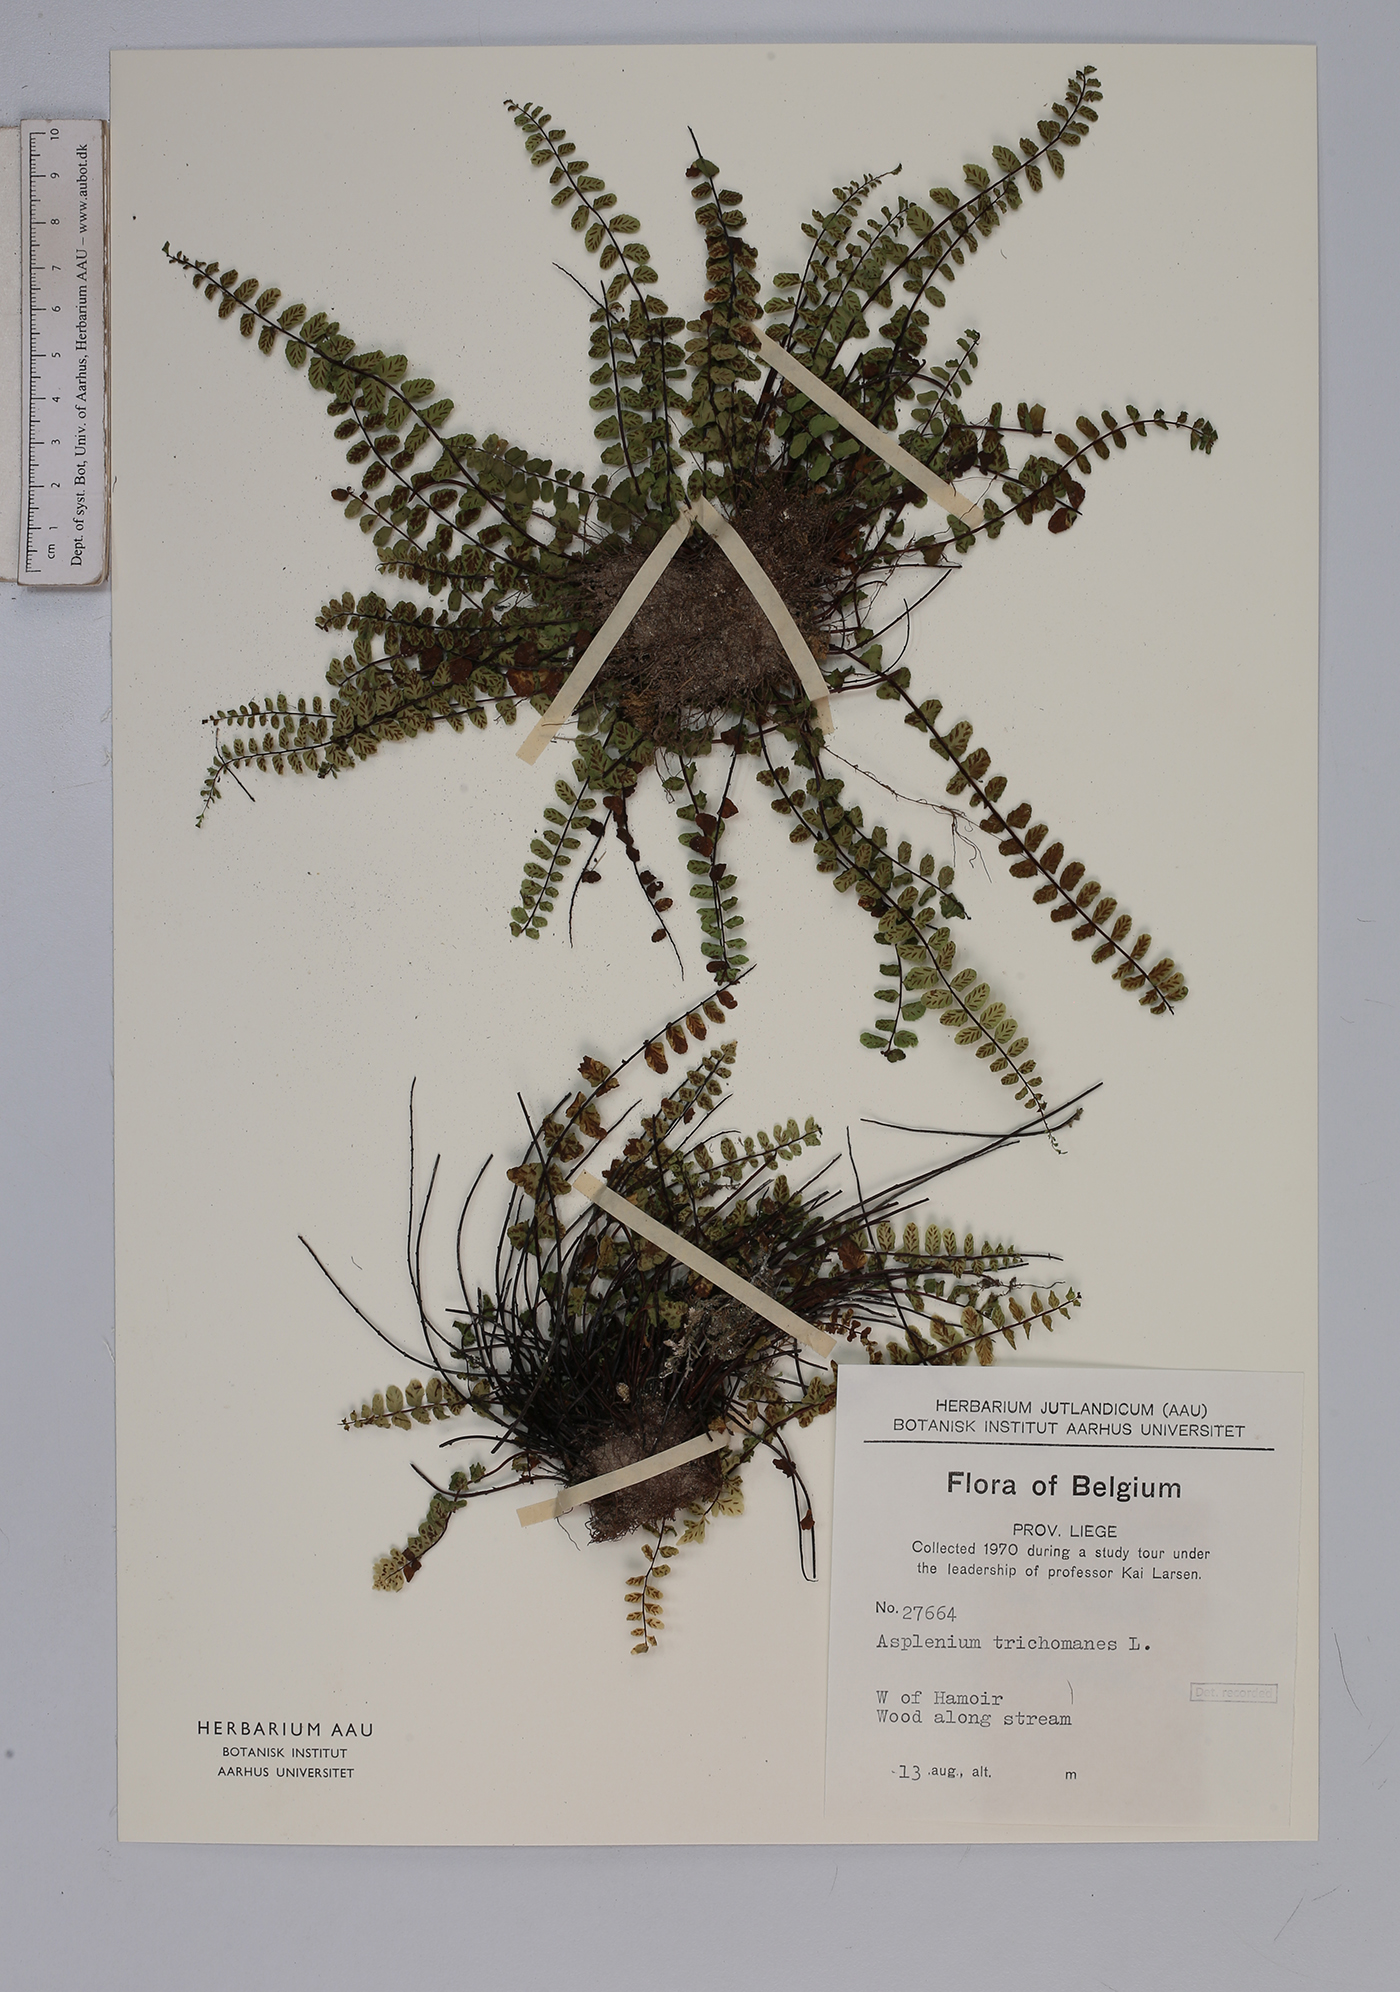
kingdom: Plantae
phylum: Tracheophyta
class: Polypodiopsida
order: Polypodiales
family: Aspleniaceae
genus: Asplenium
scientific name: Asplenium trichomanes
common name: Maidenhair spleenwort
